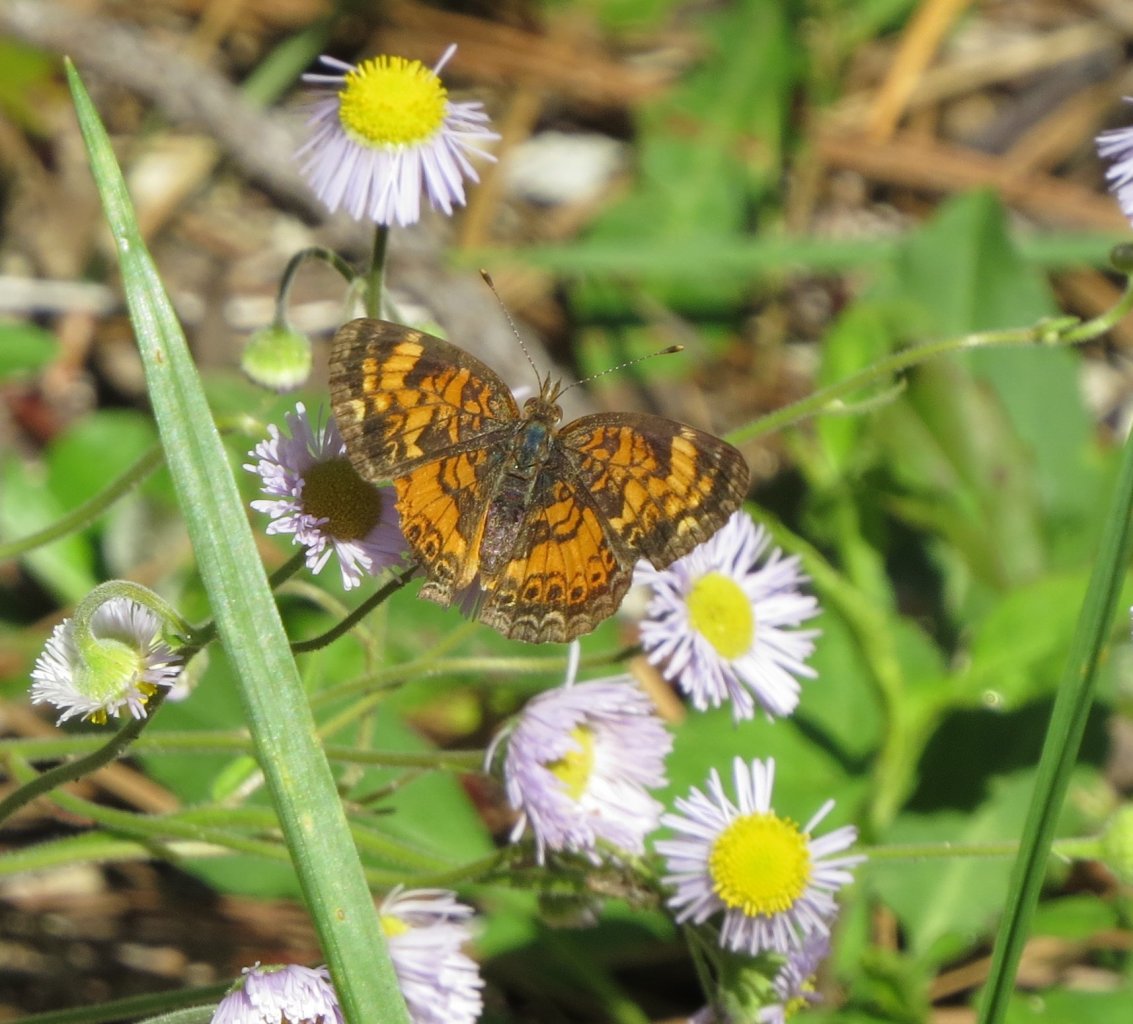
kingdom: Animalia
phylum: Arthropoda
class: Insecta
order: Lepidoptera
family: Nymphalidae
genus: Phyciodes
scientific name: Phyciodes tharos
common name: Pearl Crescent
